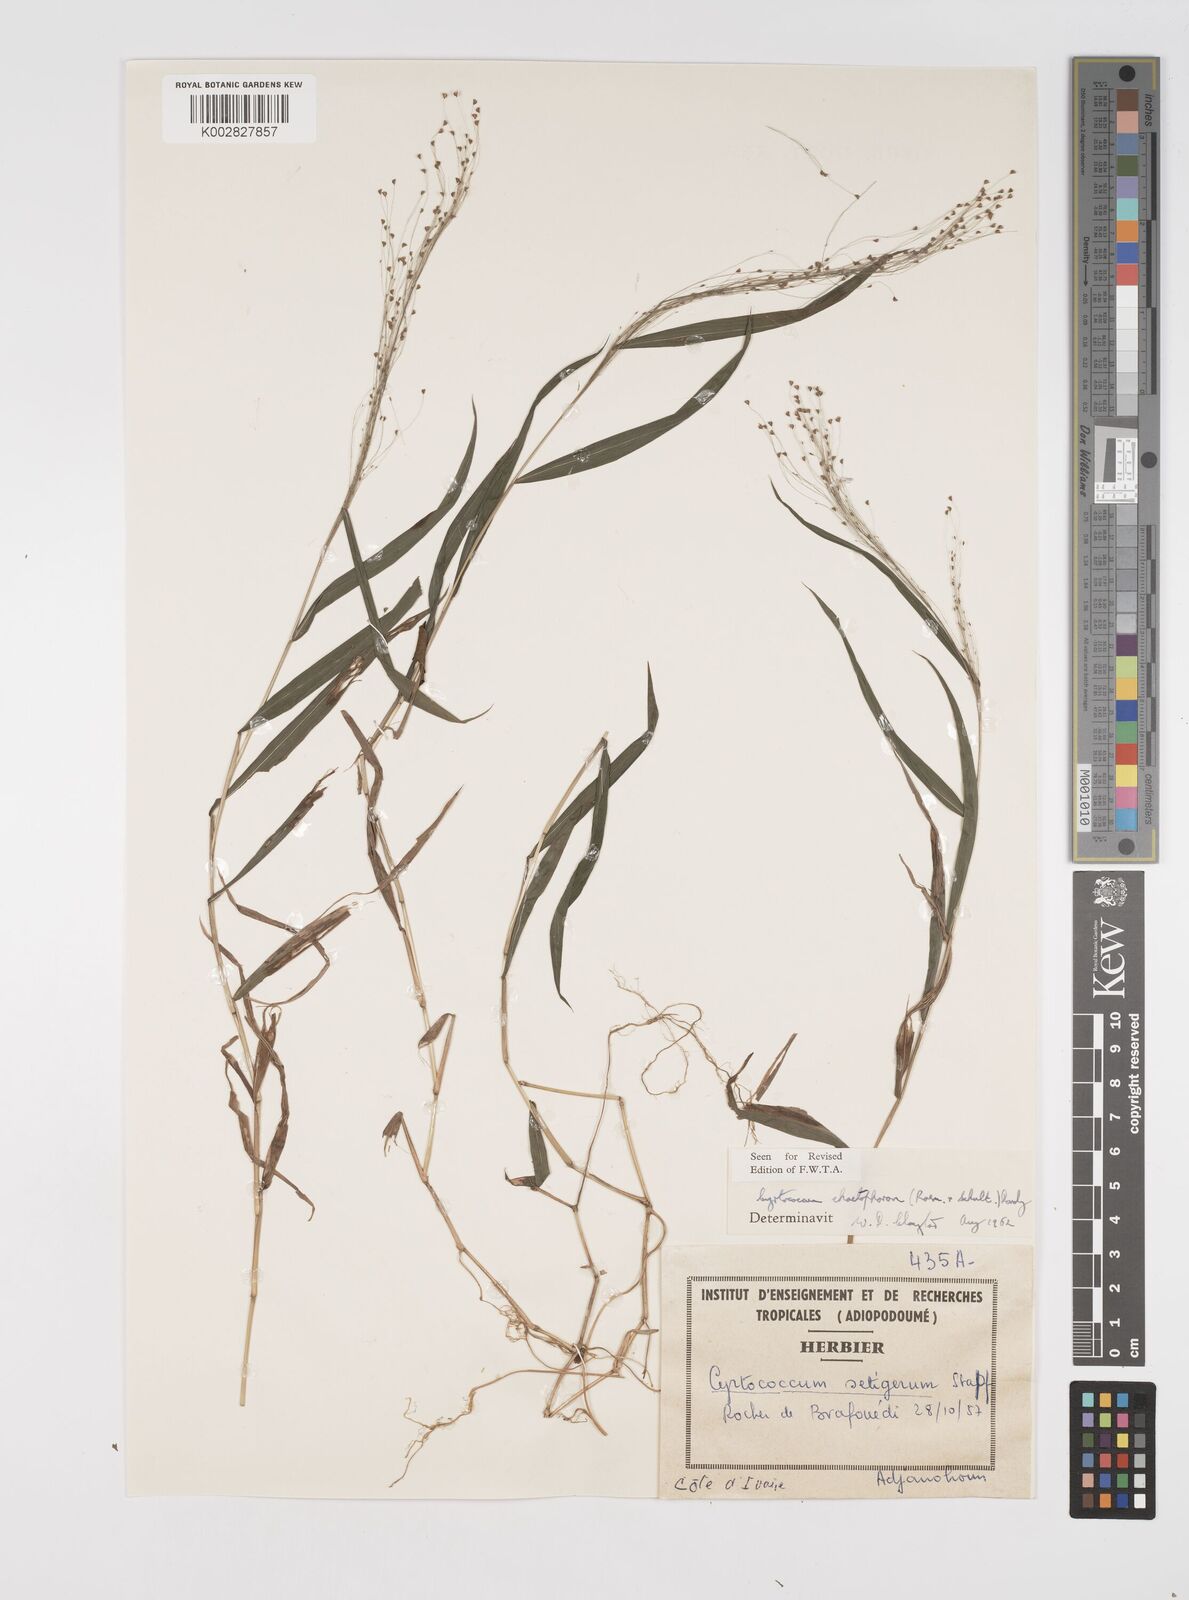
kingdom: Plantae
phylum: Tracheophyta
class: Liliopsida
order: Poales
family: Poaceae
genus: Cyrtococcum
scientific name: Cyrtococcum chaetophoron
